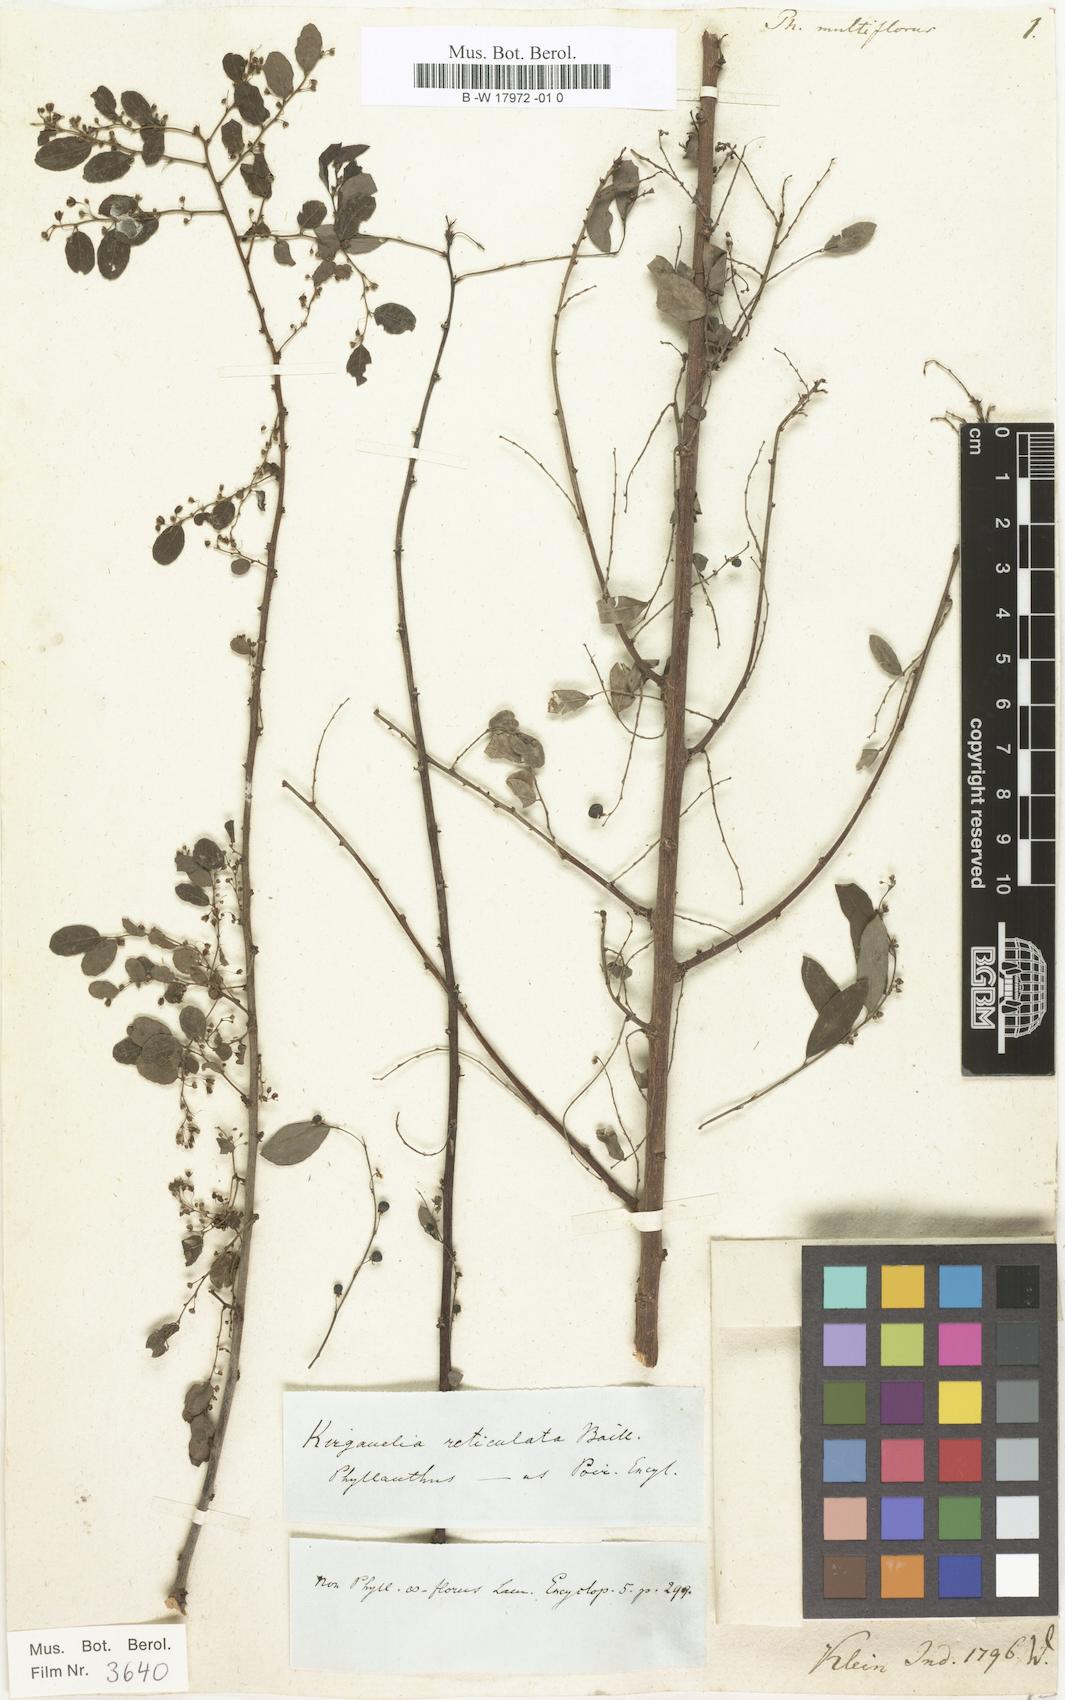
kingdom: Plantae
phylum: Tracheophyta
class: Magnoliopsida
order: Malpighiales
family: Phyllanthaceae
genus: Phyllanthus
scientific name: Phyllanthus multiflorus
